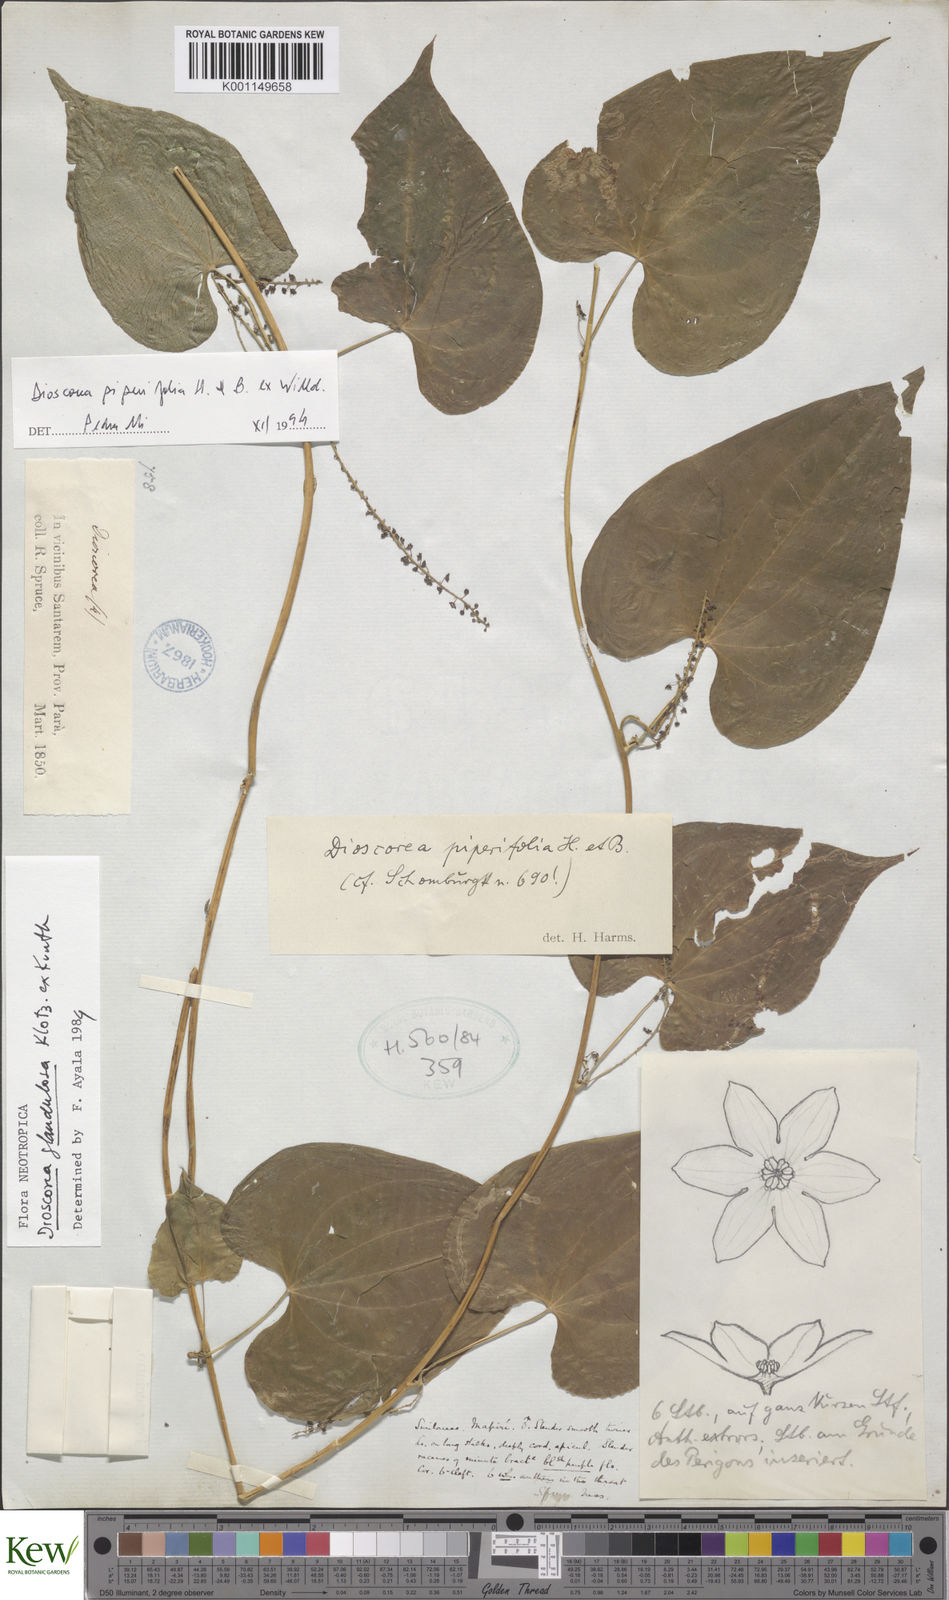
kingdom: Plantae
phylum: Tracheophyta
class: Liliopsida
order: Dioscoreales
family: Dioscoreaceae
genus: Dioscorea
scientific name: Dioscorea glandulosa
